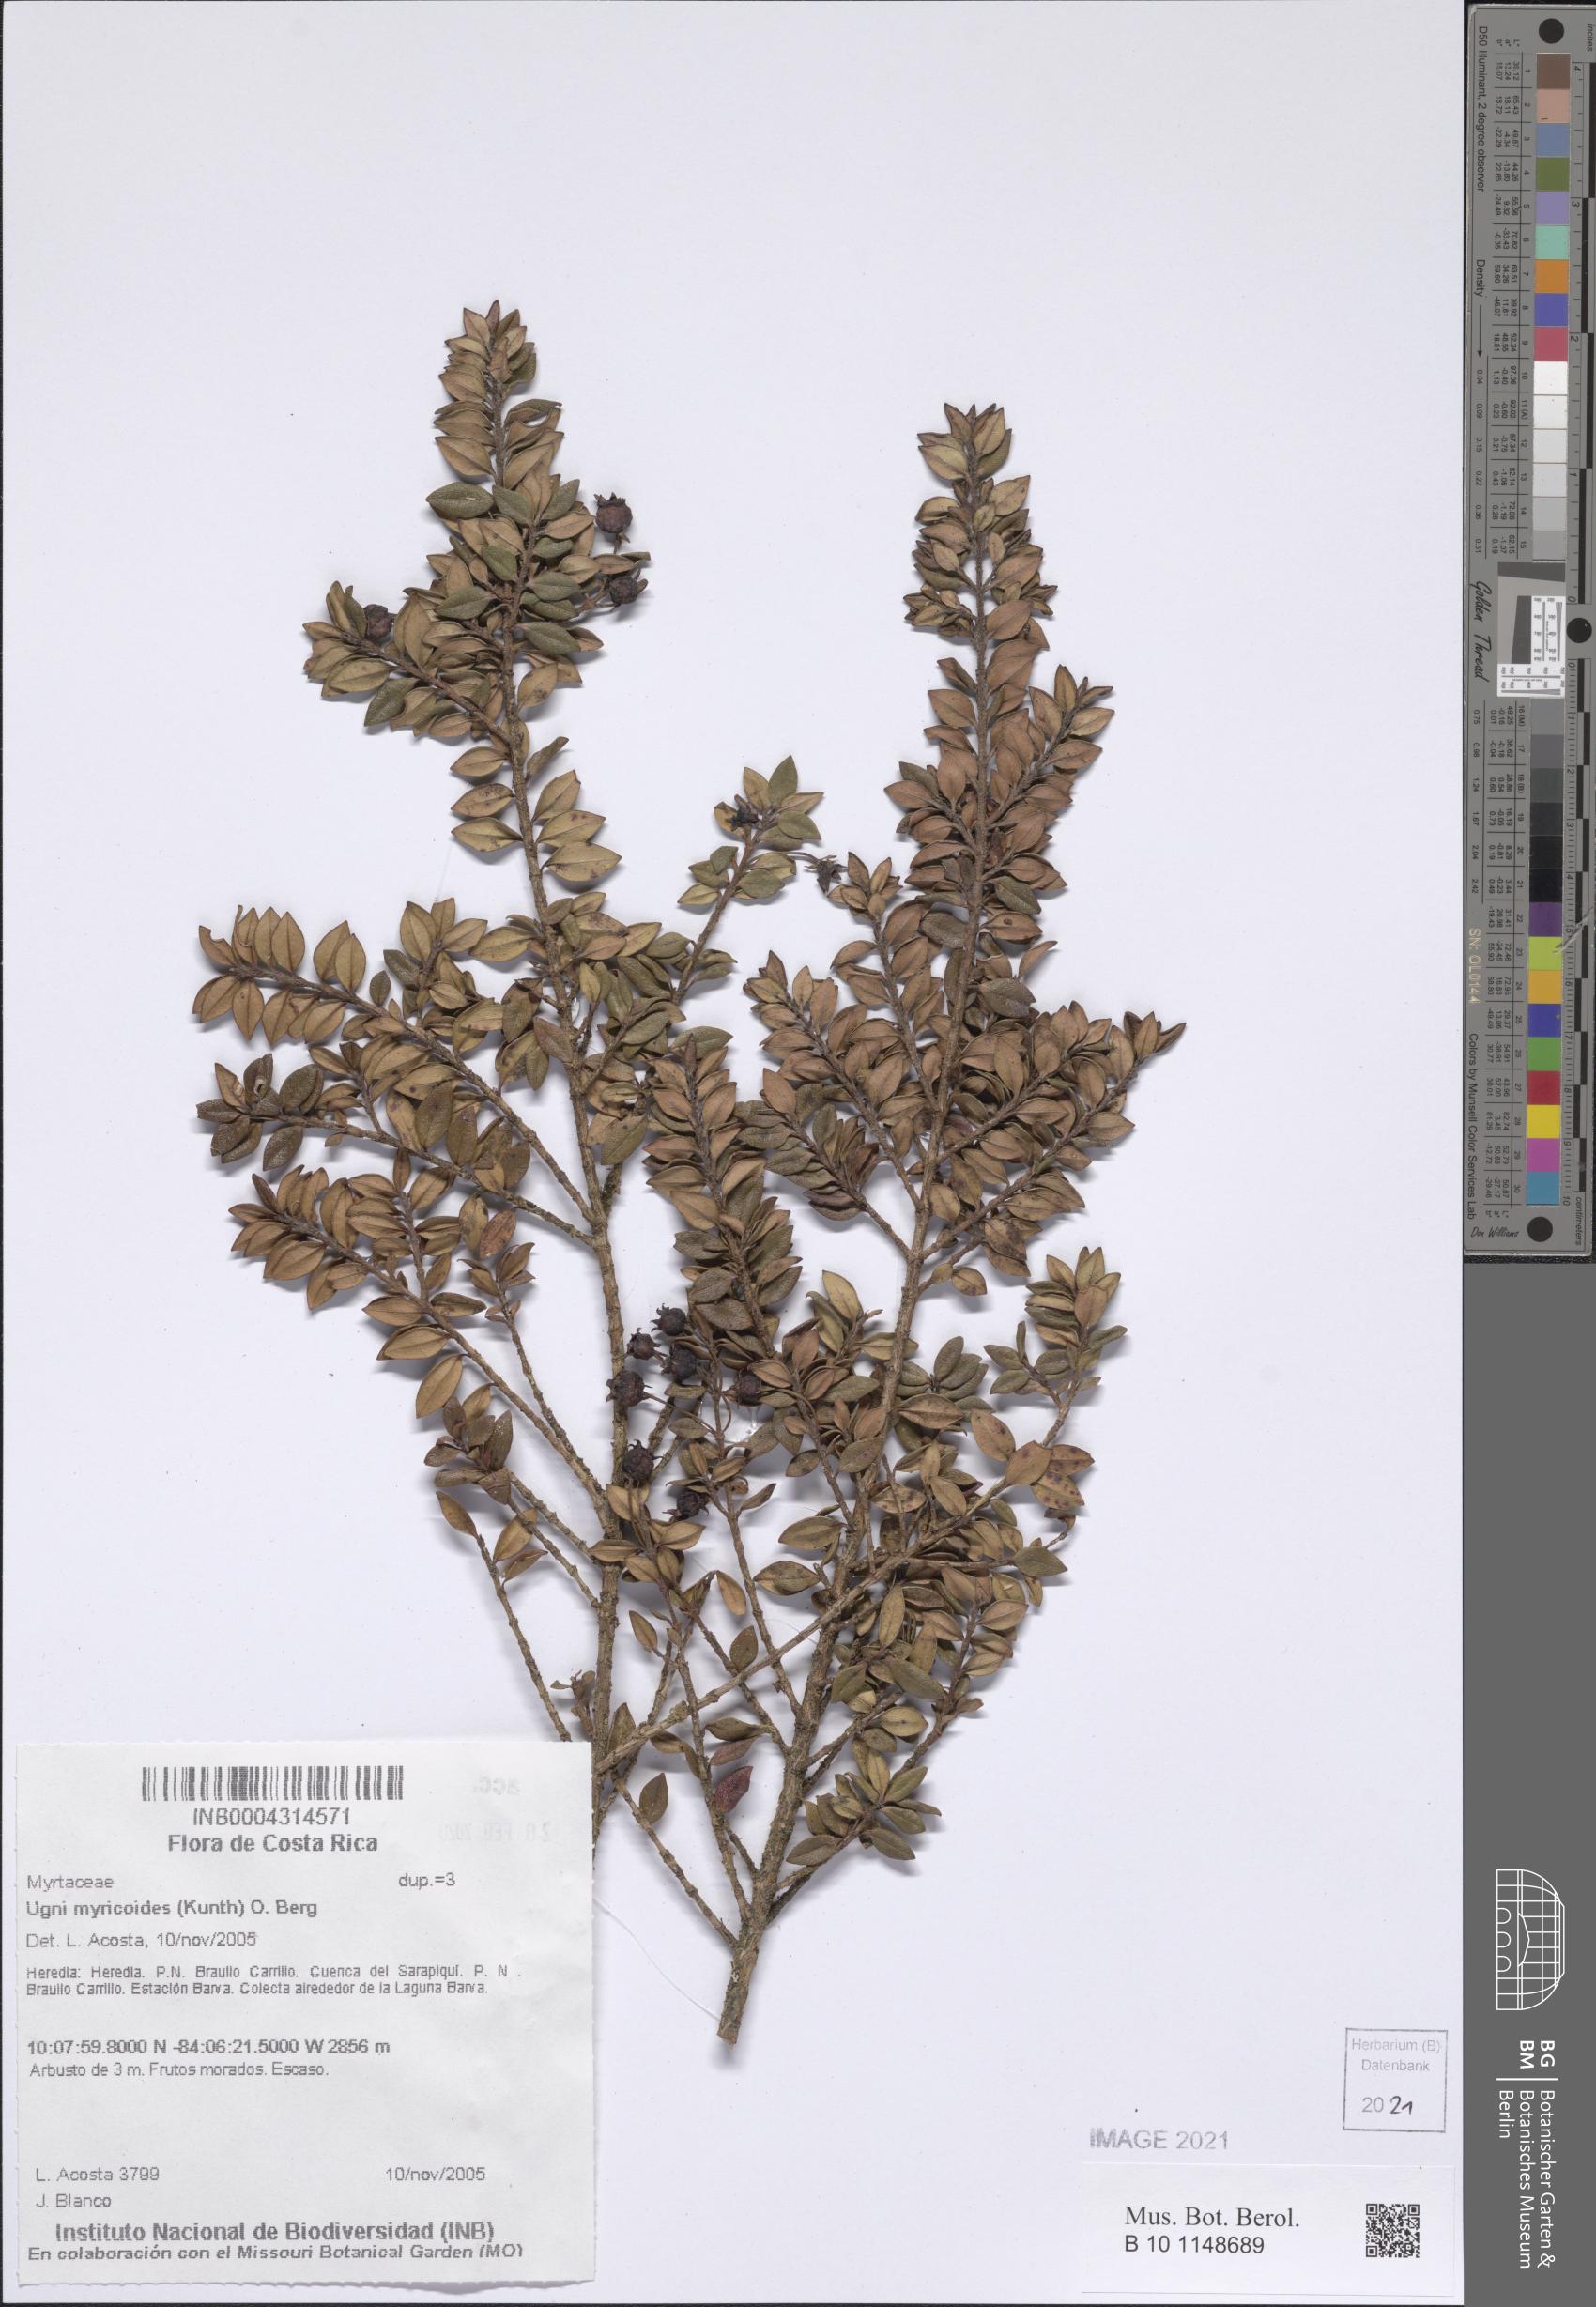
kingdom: Plantae
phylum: Tracheophyta
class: Magnoliopsida
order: Myrtales
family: Myrtaceae
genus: Ugni
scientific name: Ugni myricoides
